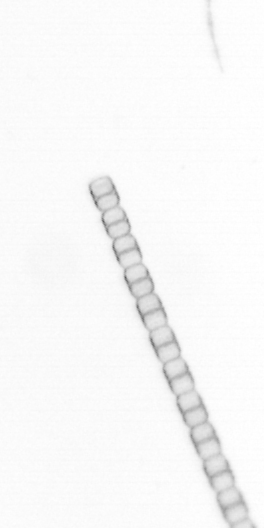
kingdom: Chromista
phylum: Ochrophyta
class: Bacillariophyceae
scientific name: Bacillariophyceae
